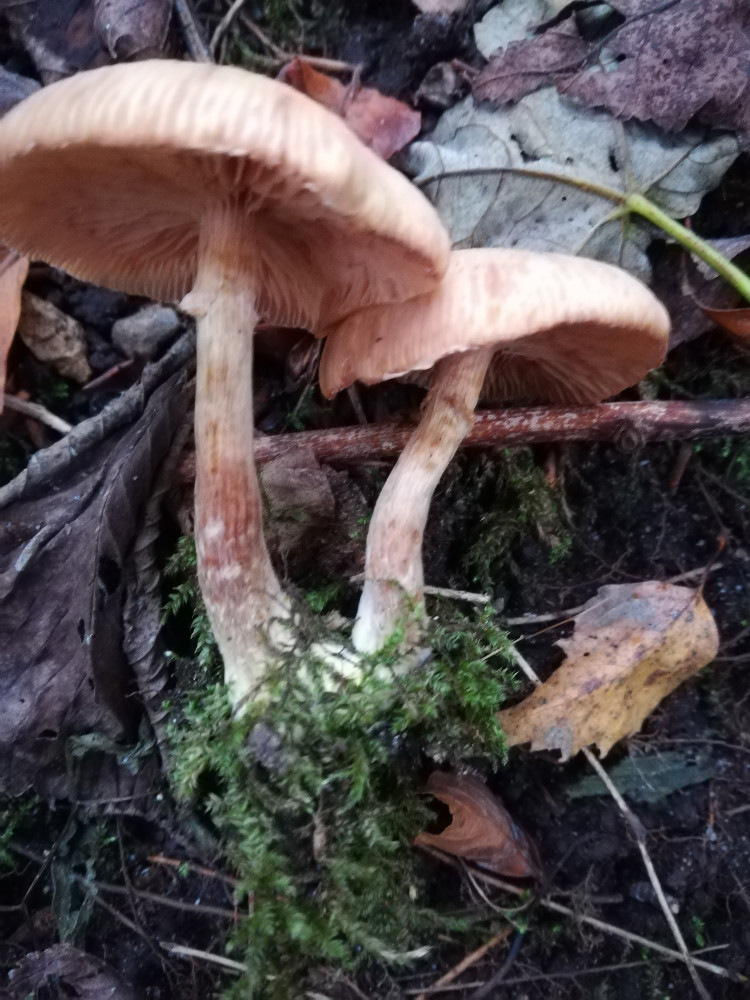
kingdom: Fungi
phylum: Basidiomycota
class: Agaricomycetes
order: Agaricales
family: Physalacriaceae
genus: Armillaria
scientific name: Armillaria lutea
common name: køllestokket honningsvamp
